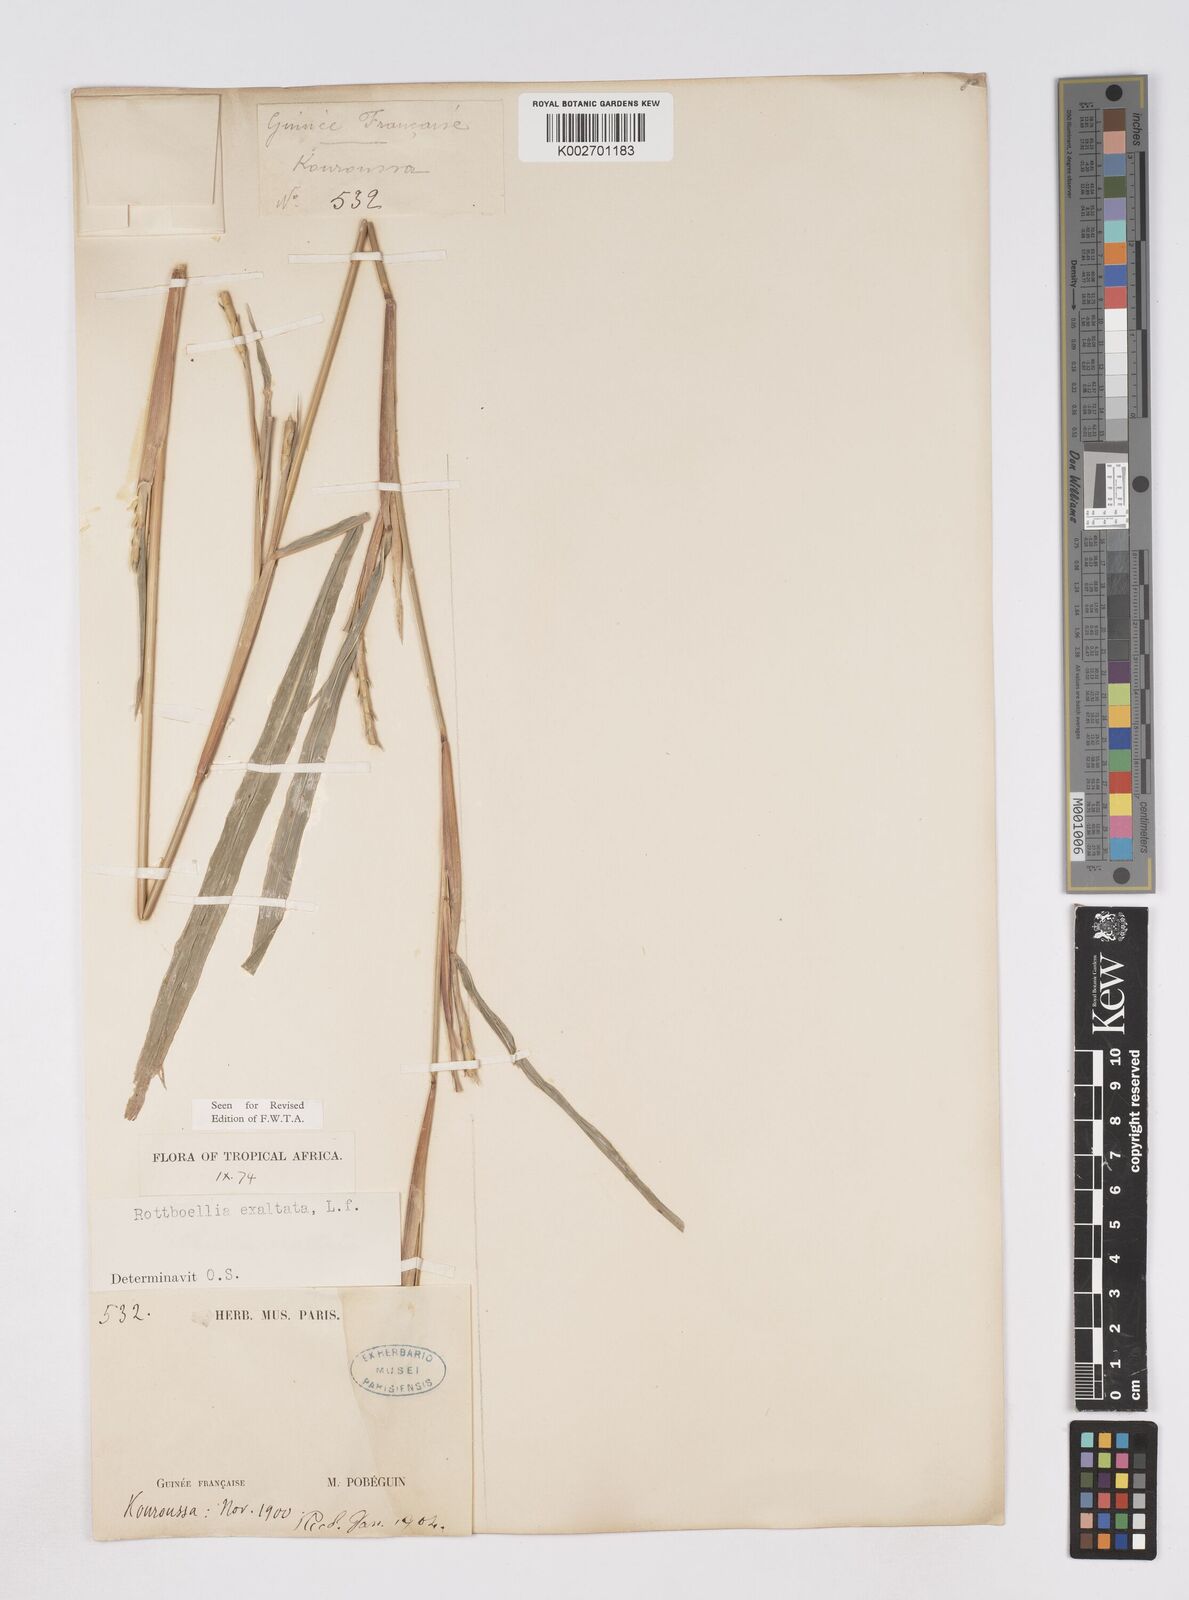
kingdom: Plantae
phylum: Tracheophyta
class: Liliopsida
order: Poales
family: Poaceae
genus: Ophiuros
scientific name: Ophiuros exaltatus
